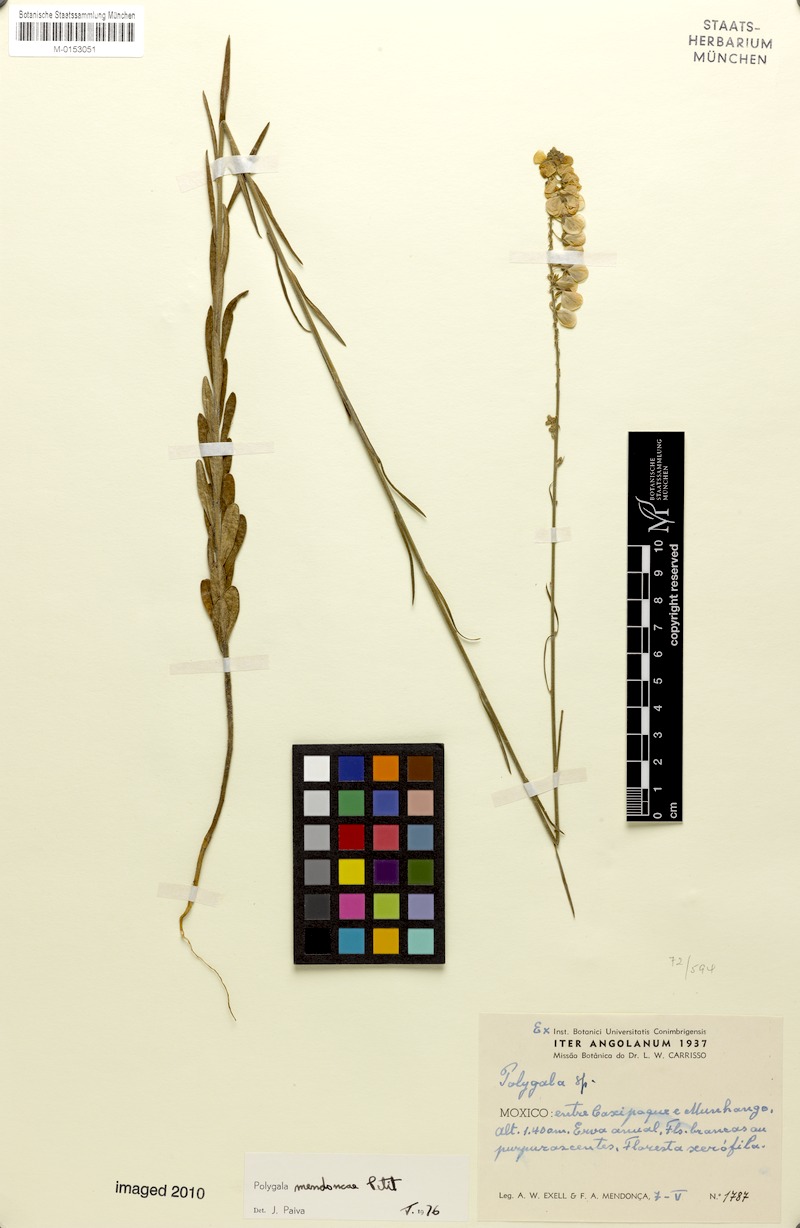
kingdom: Plantae
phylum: Tracheophyta
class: Magnoliopsida
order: Fabales
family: Polygalaceae
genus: Polygala
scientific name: Polygala mendoncae
